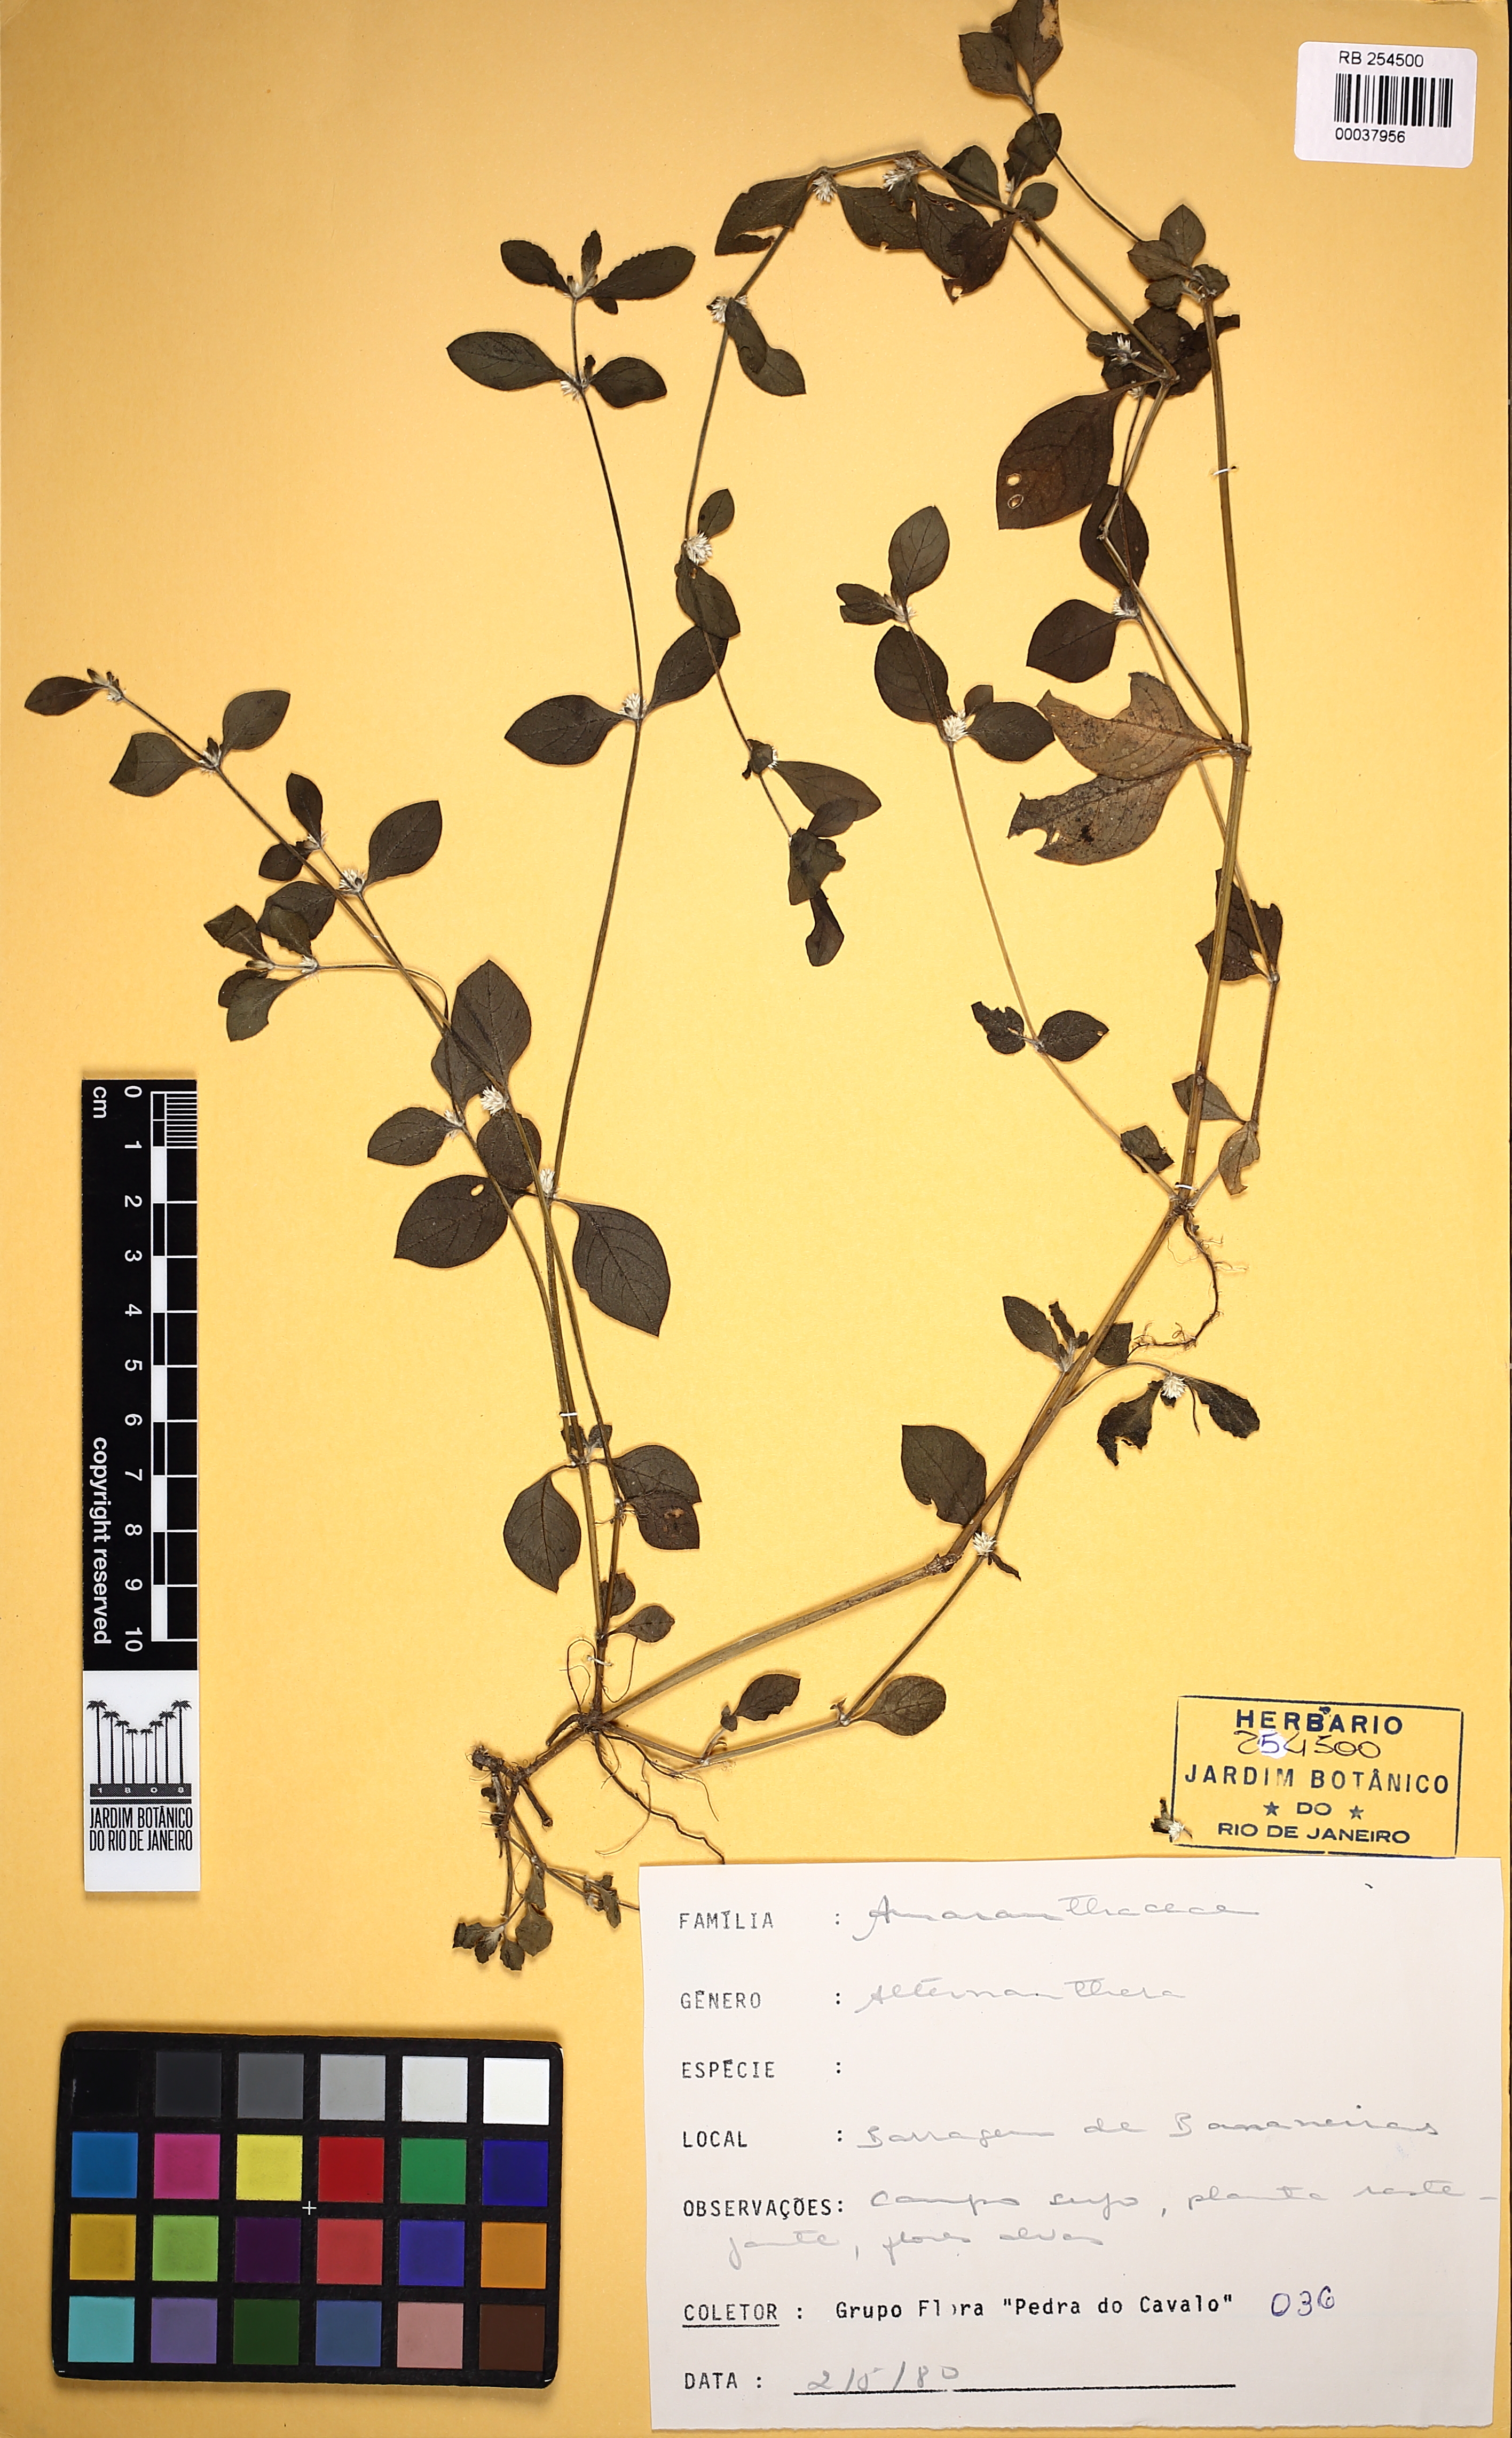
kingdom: Plantae
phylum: Tracheophyta
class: Magnoliopsida
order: Caryophyllales
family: Amaranthaceae
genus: Alternanthera
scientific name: Alternanthera ficoidea
